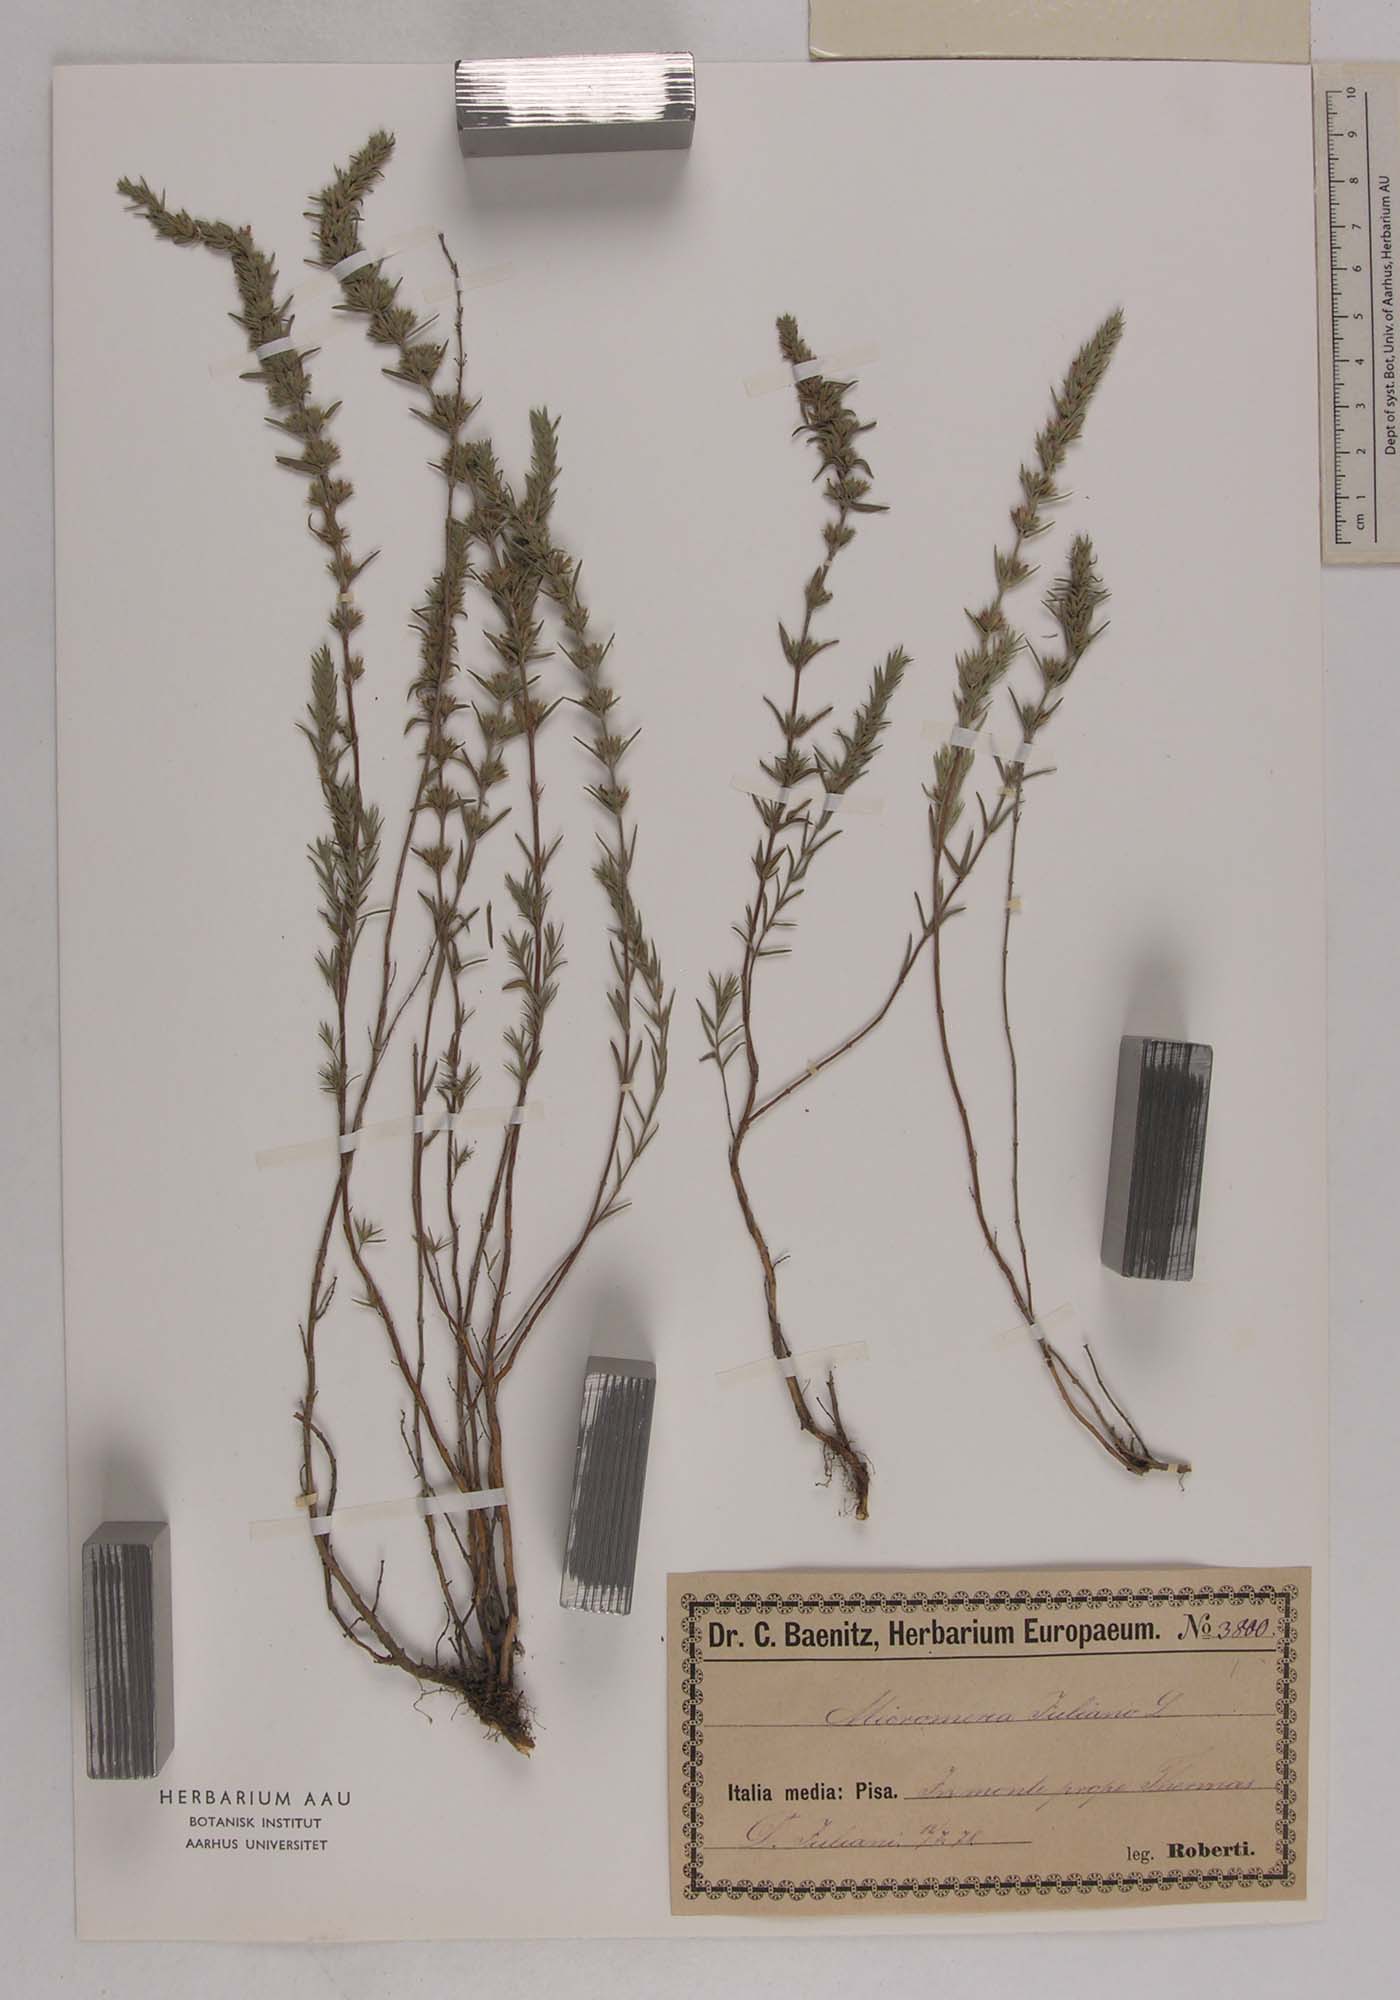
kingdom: Plantae
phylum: Tracheophyta
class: Magnoliopsida
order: Lamiales
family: Lamiaceae
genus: Micromeria
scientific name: Micromeria juliana
